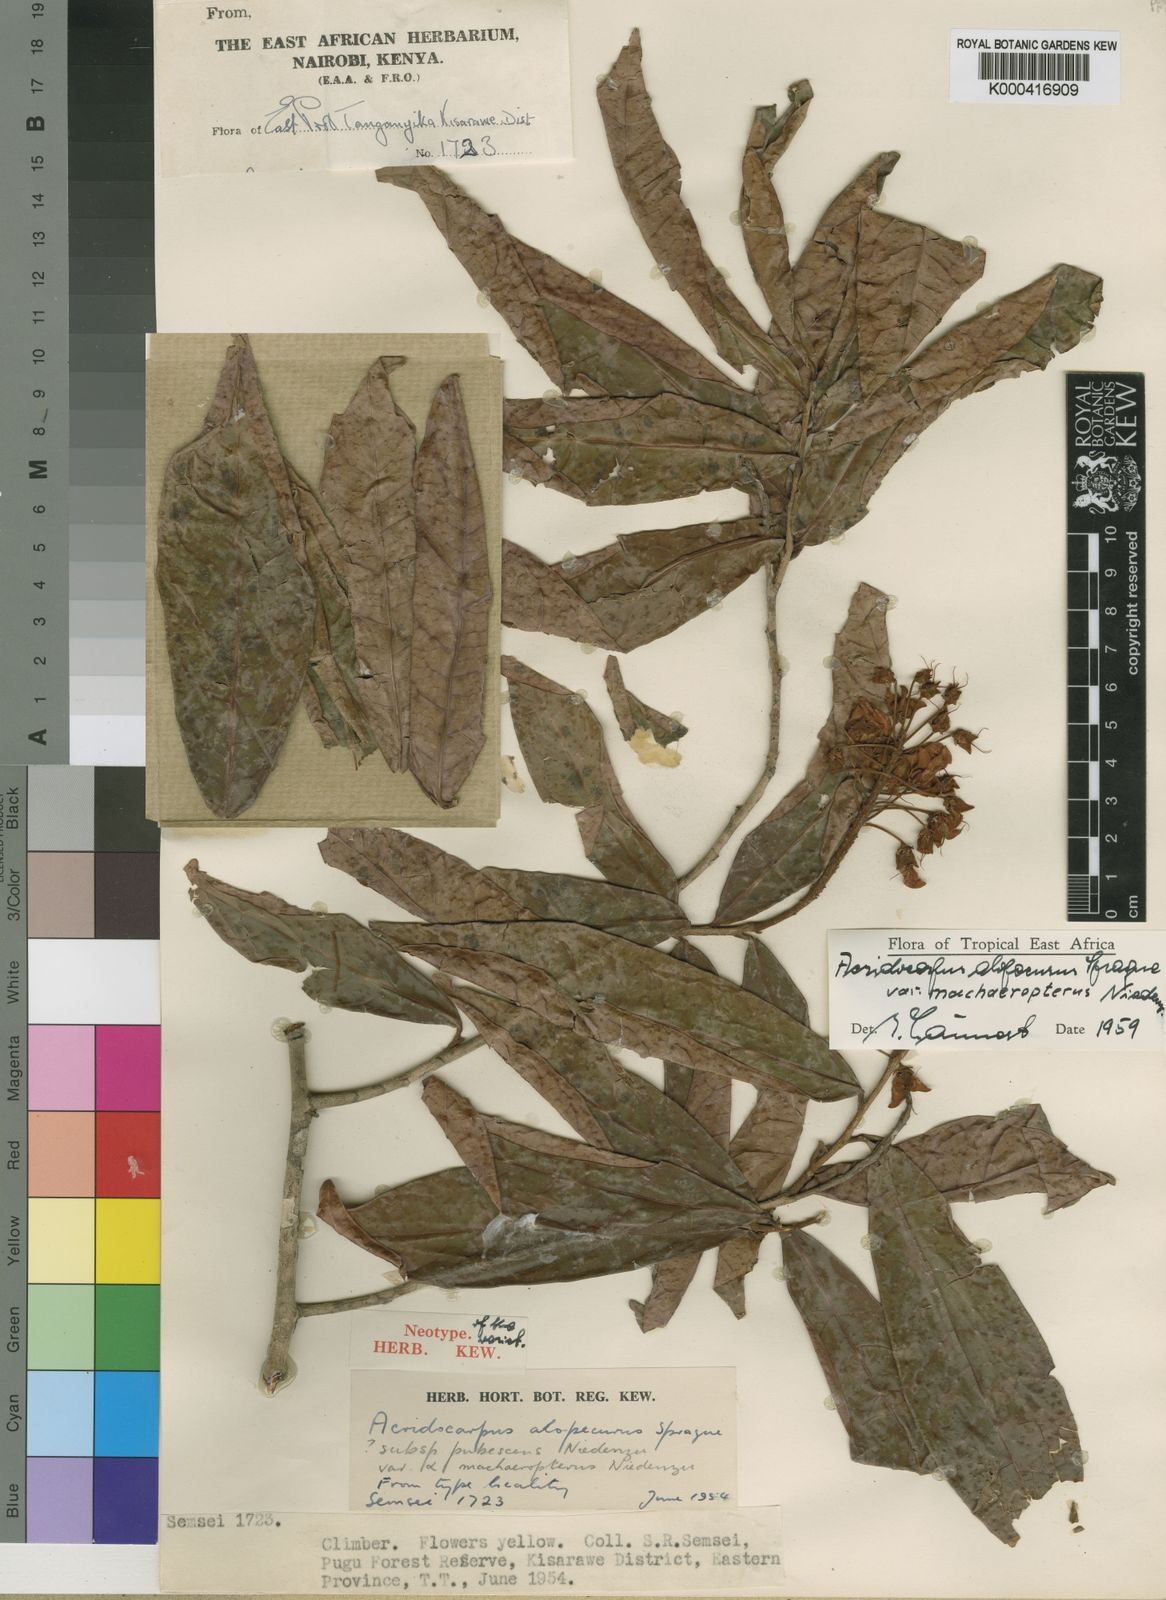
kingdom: Plantae
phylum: Tracheophyta
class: Magnoliopsida
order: Malpighiales
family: Malpighiaceae
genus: Acridocarpus
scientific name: Acridocarpus alopecurus
